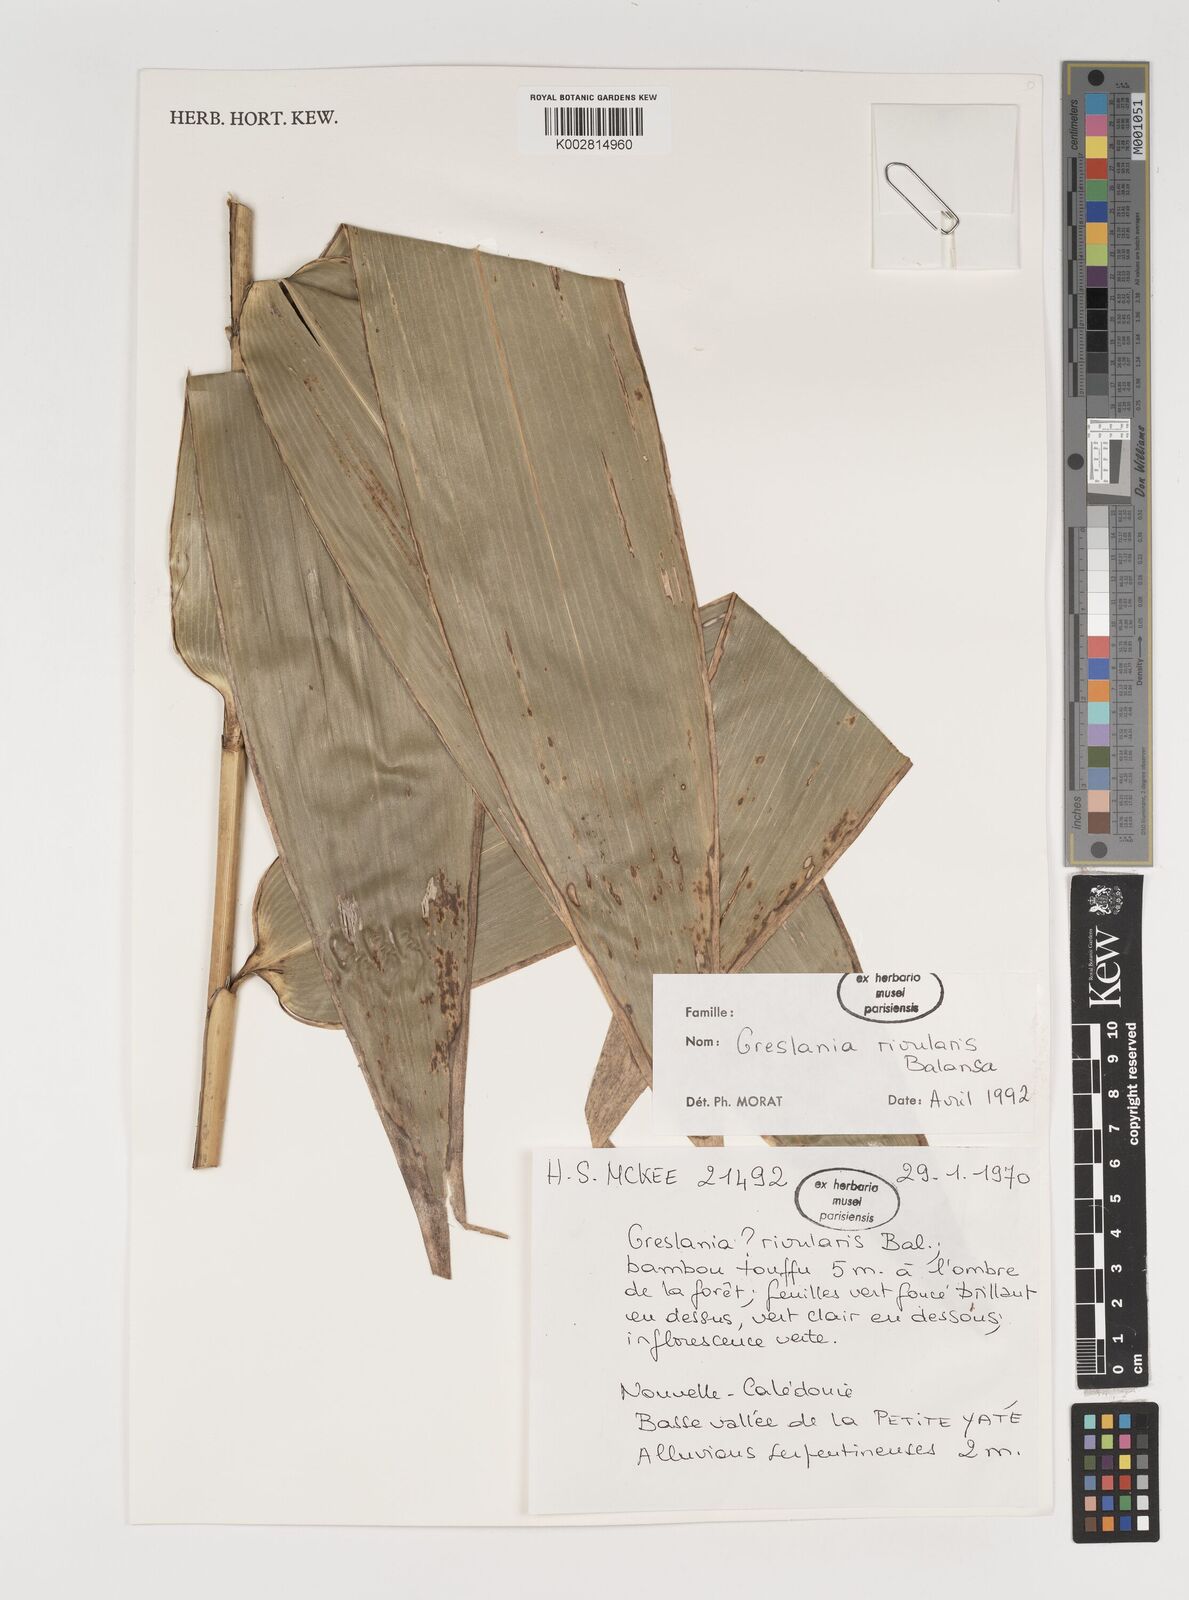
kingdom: Plantae
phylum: Tracheophyta
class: Liliopsida
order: Poales
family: Poaceae
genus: Greslania
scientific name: Greslania rivularis
